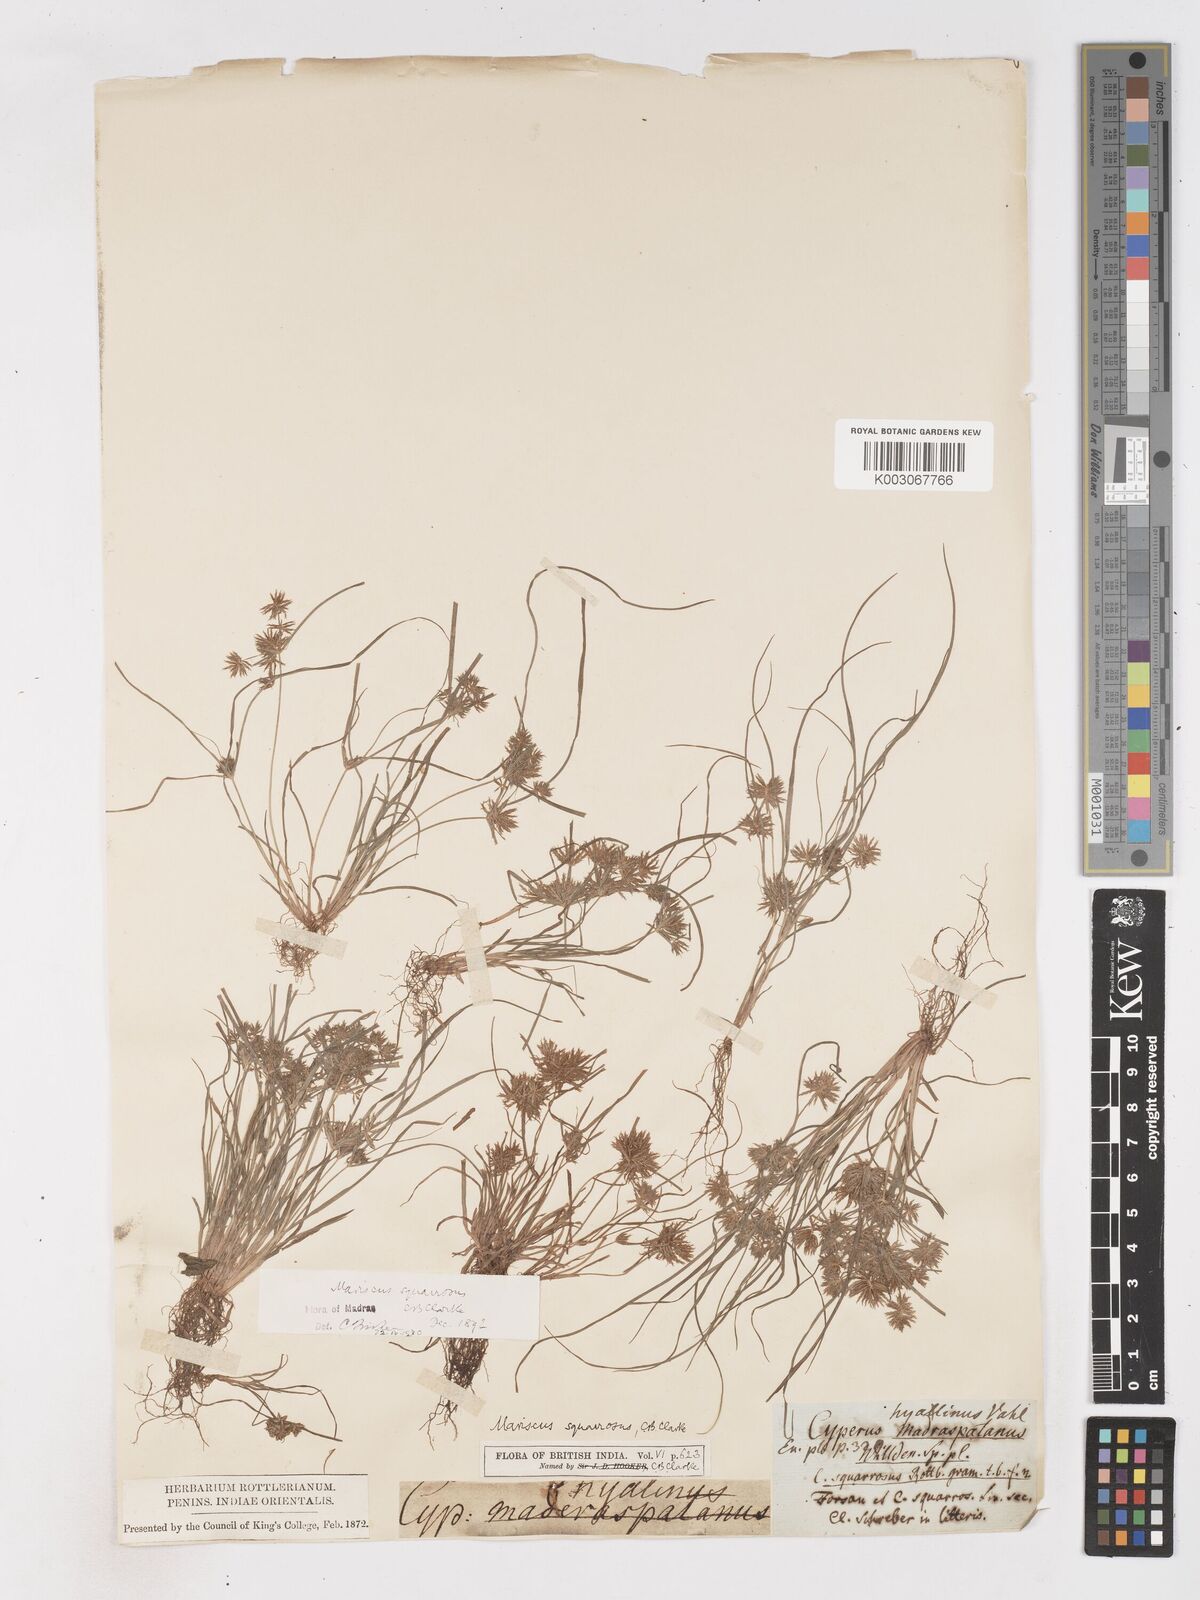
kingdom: Plantae
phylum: Tracheophyta
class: Liliopsida
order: Poales
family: Cyperaceae
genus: Cyperus
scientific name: Cyperus maderaspatanus
